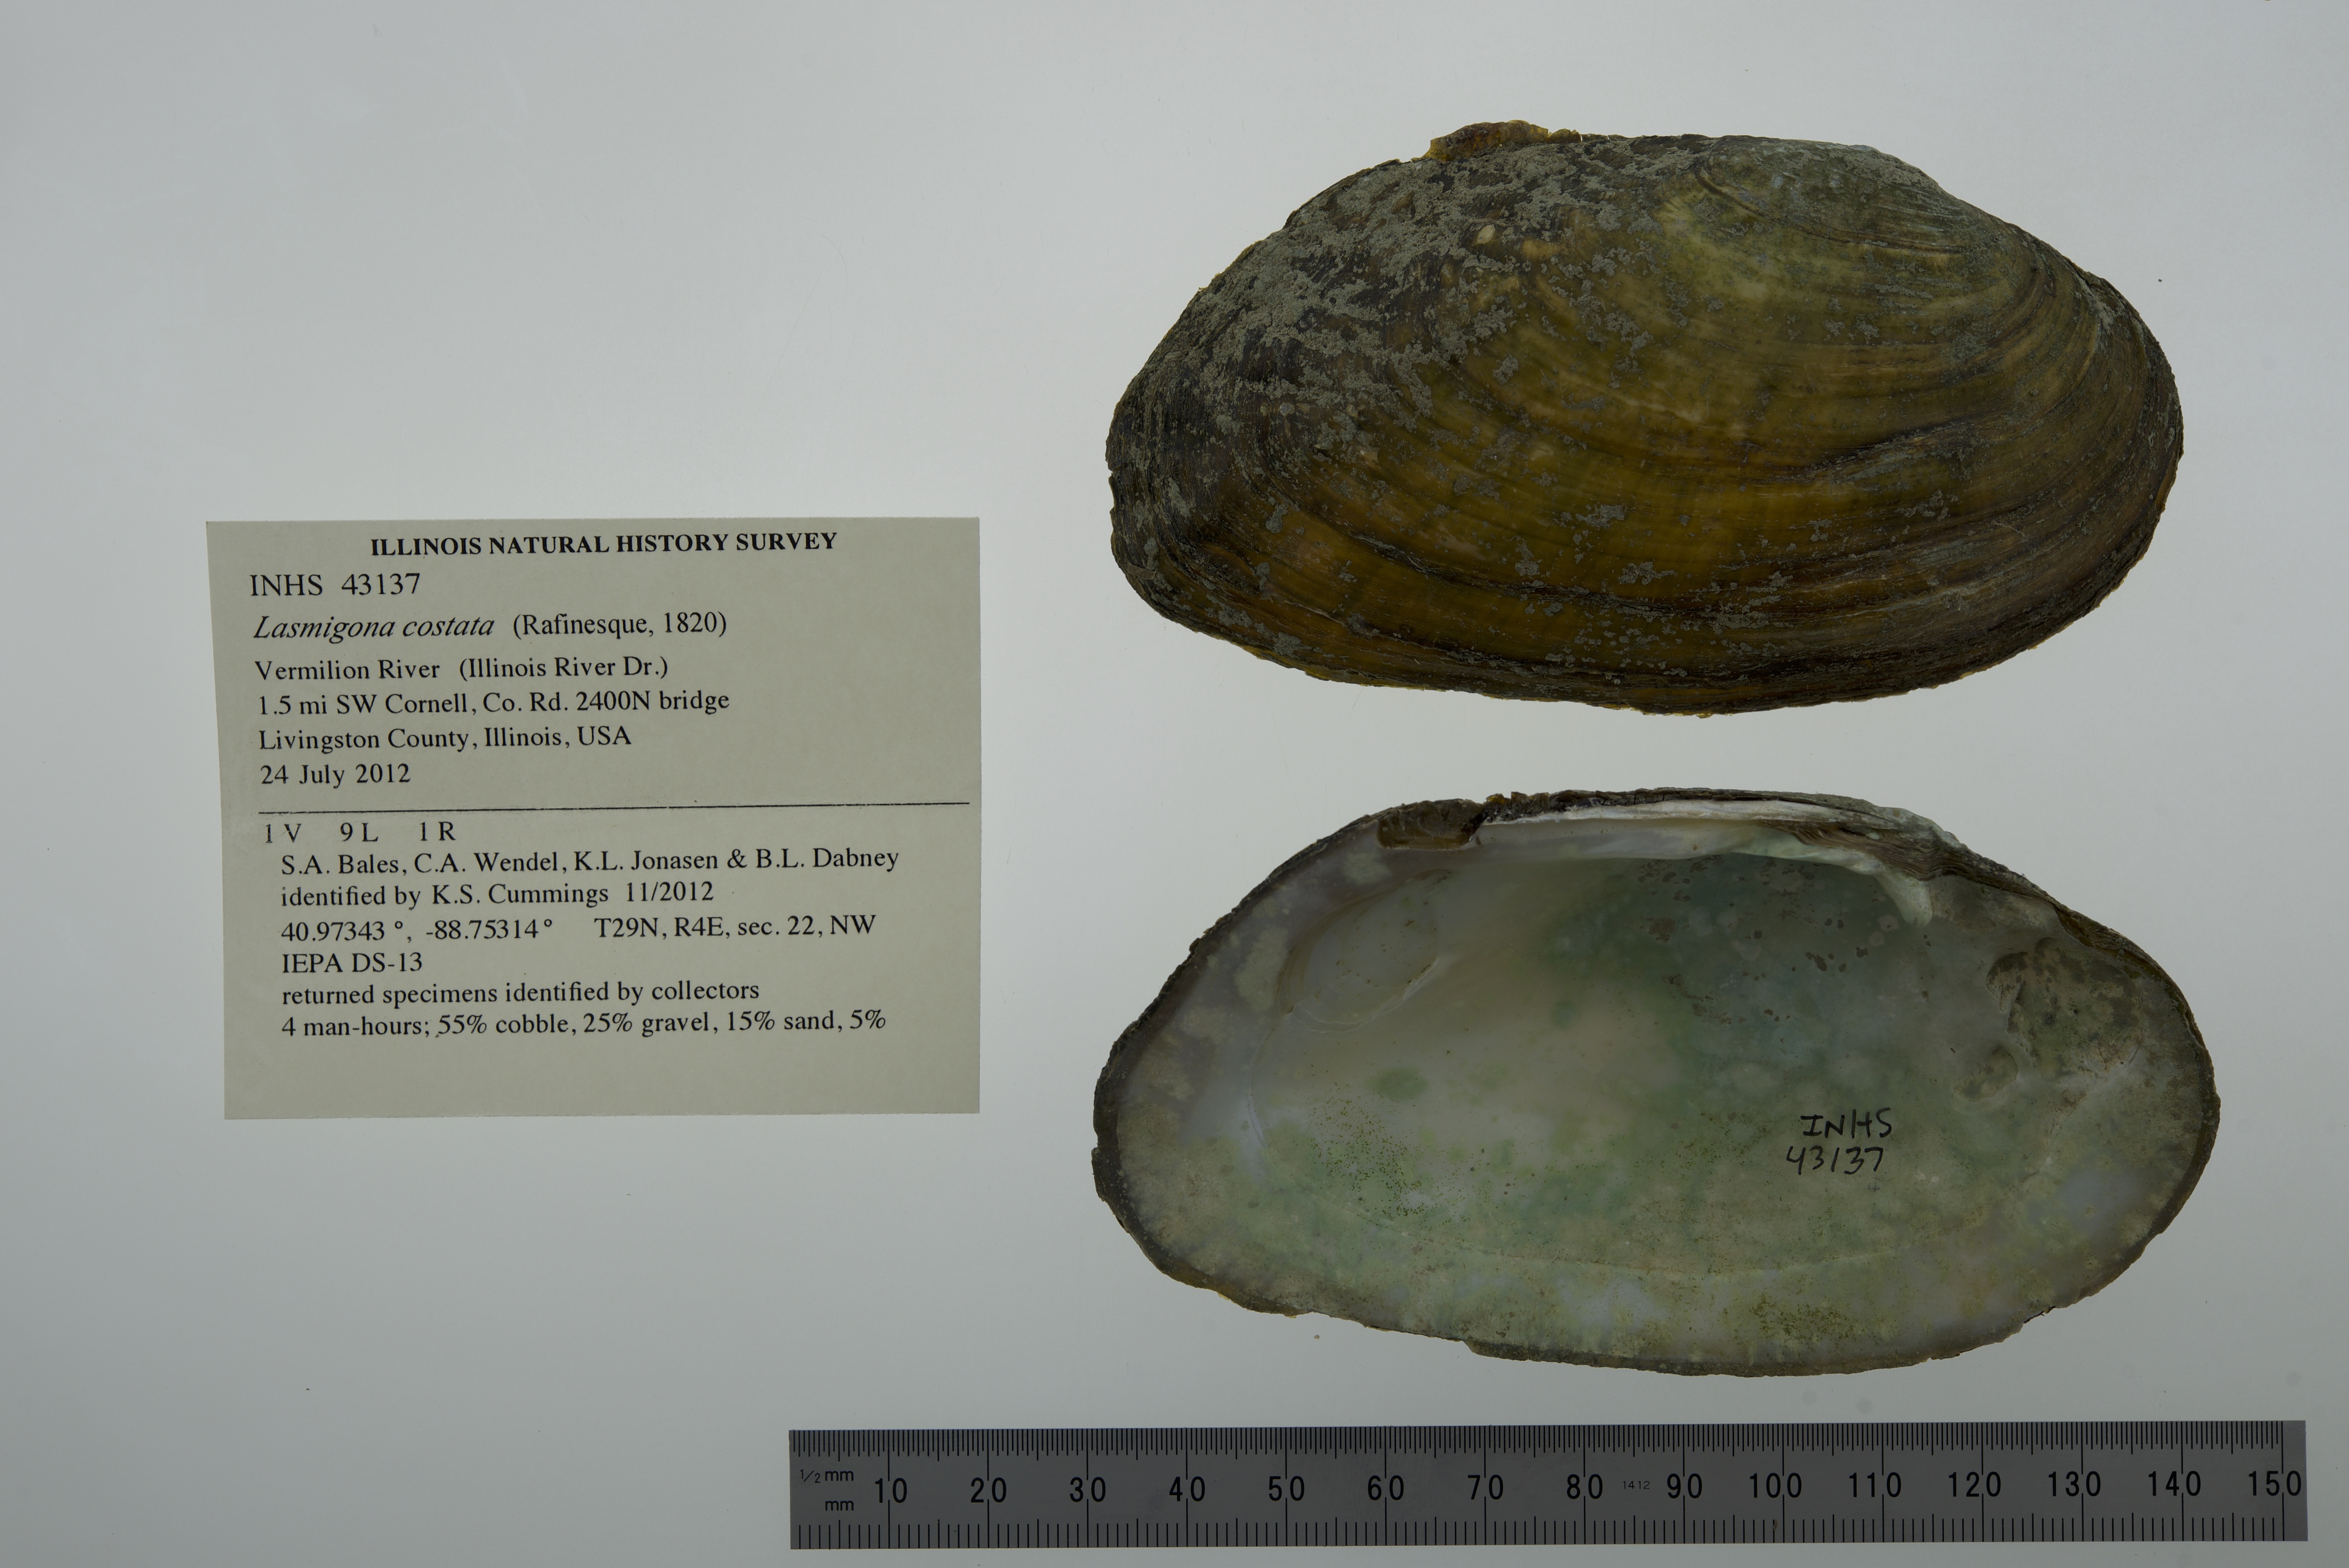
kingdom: Animalia
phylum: Mollusca
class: Bivalvia
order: Unionida
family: Unionidae
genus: Lasmigona
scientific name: Lasmigona costata
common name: Flutedshell
